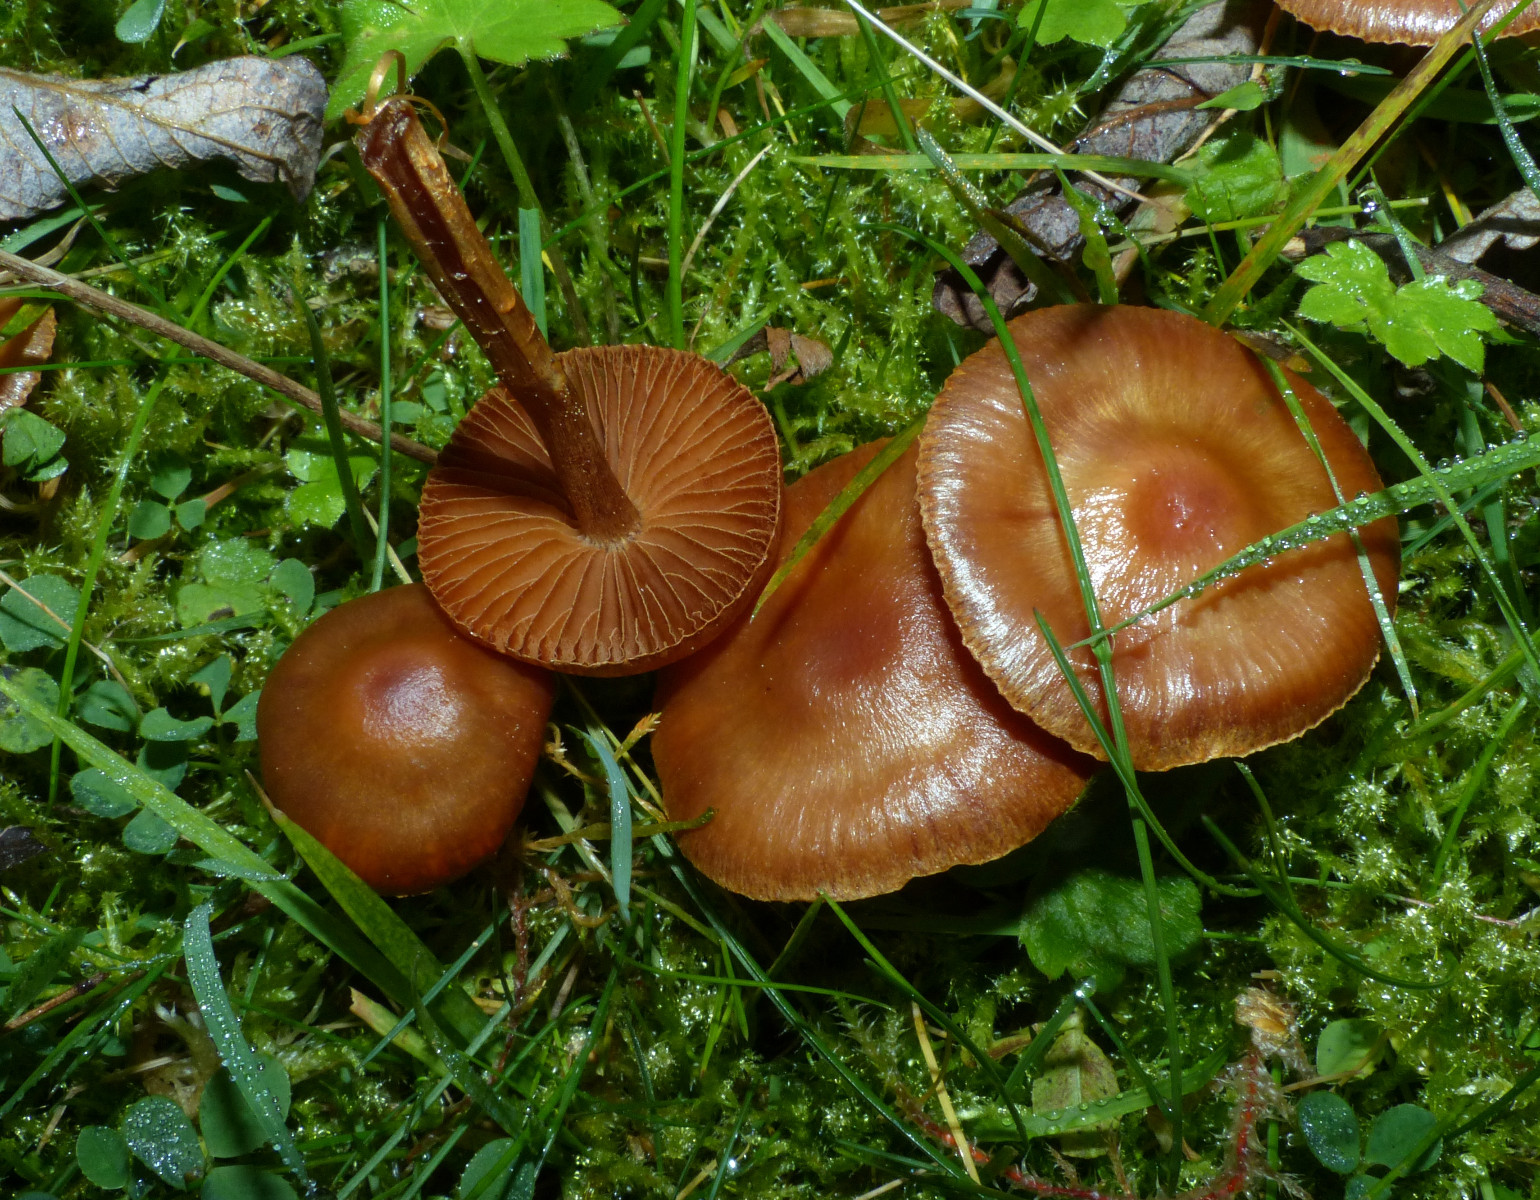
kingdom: Fungi
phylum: Basidiomycota
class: Agaricomycetes
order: Agaricales
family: Cortinariaceae
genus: Cortinarius
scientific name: Cortinarius
